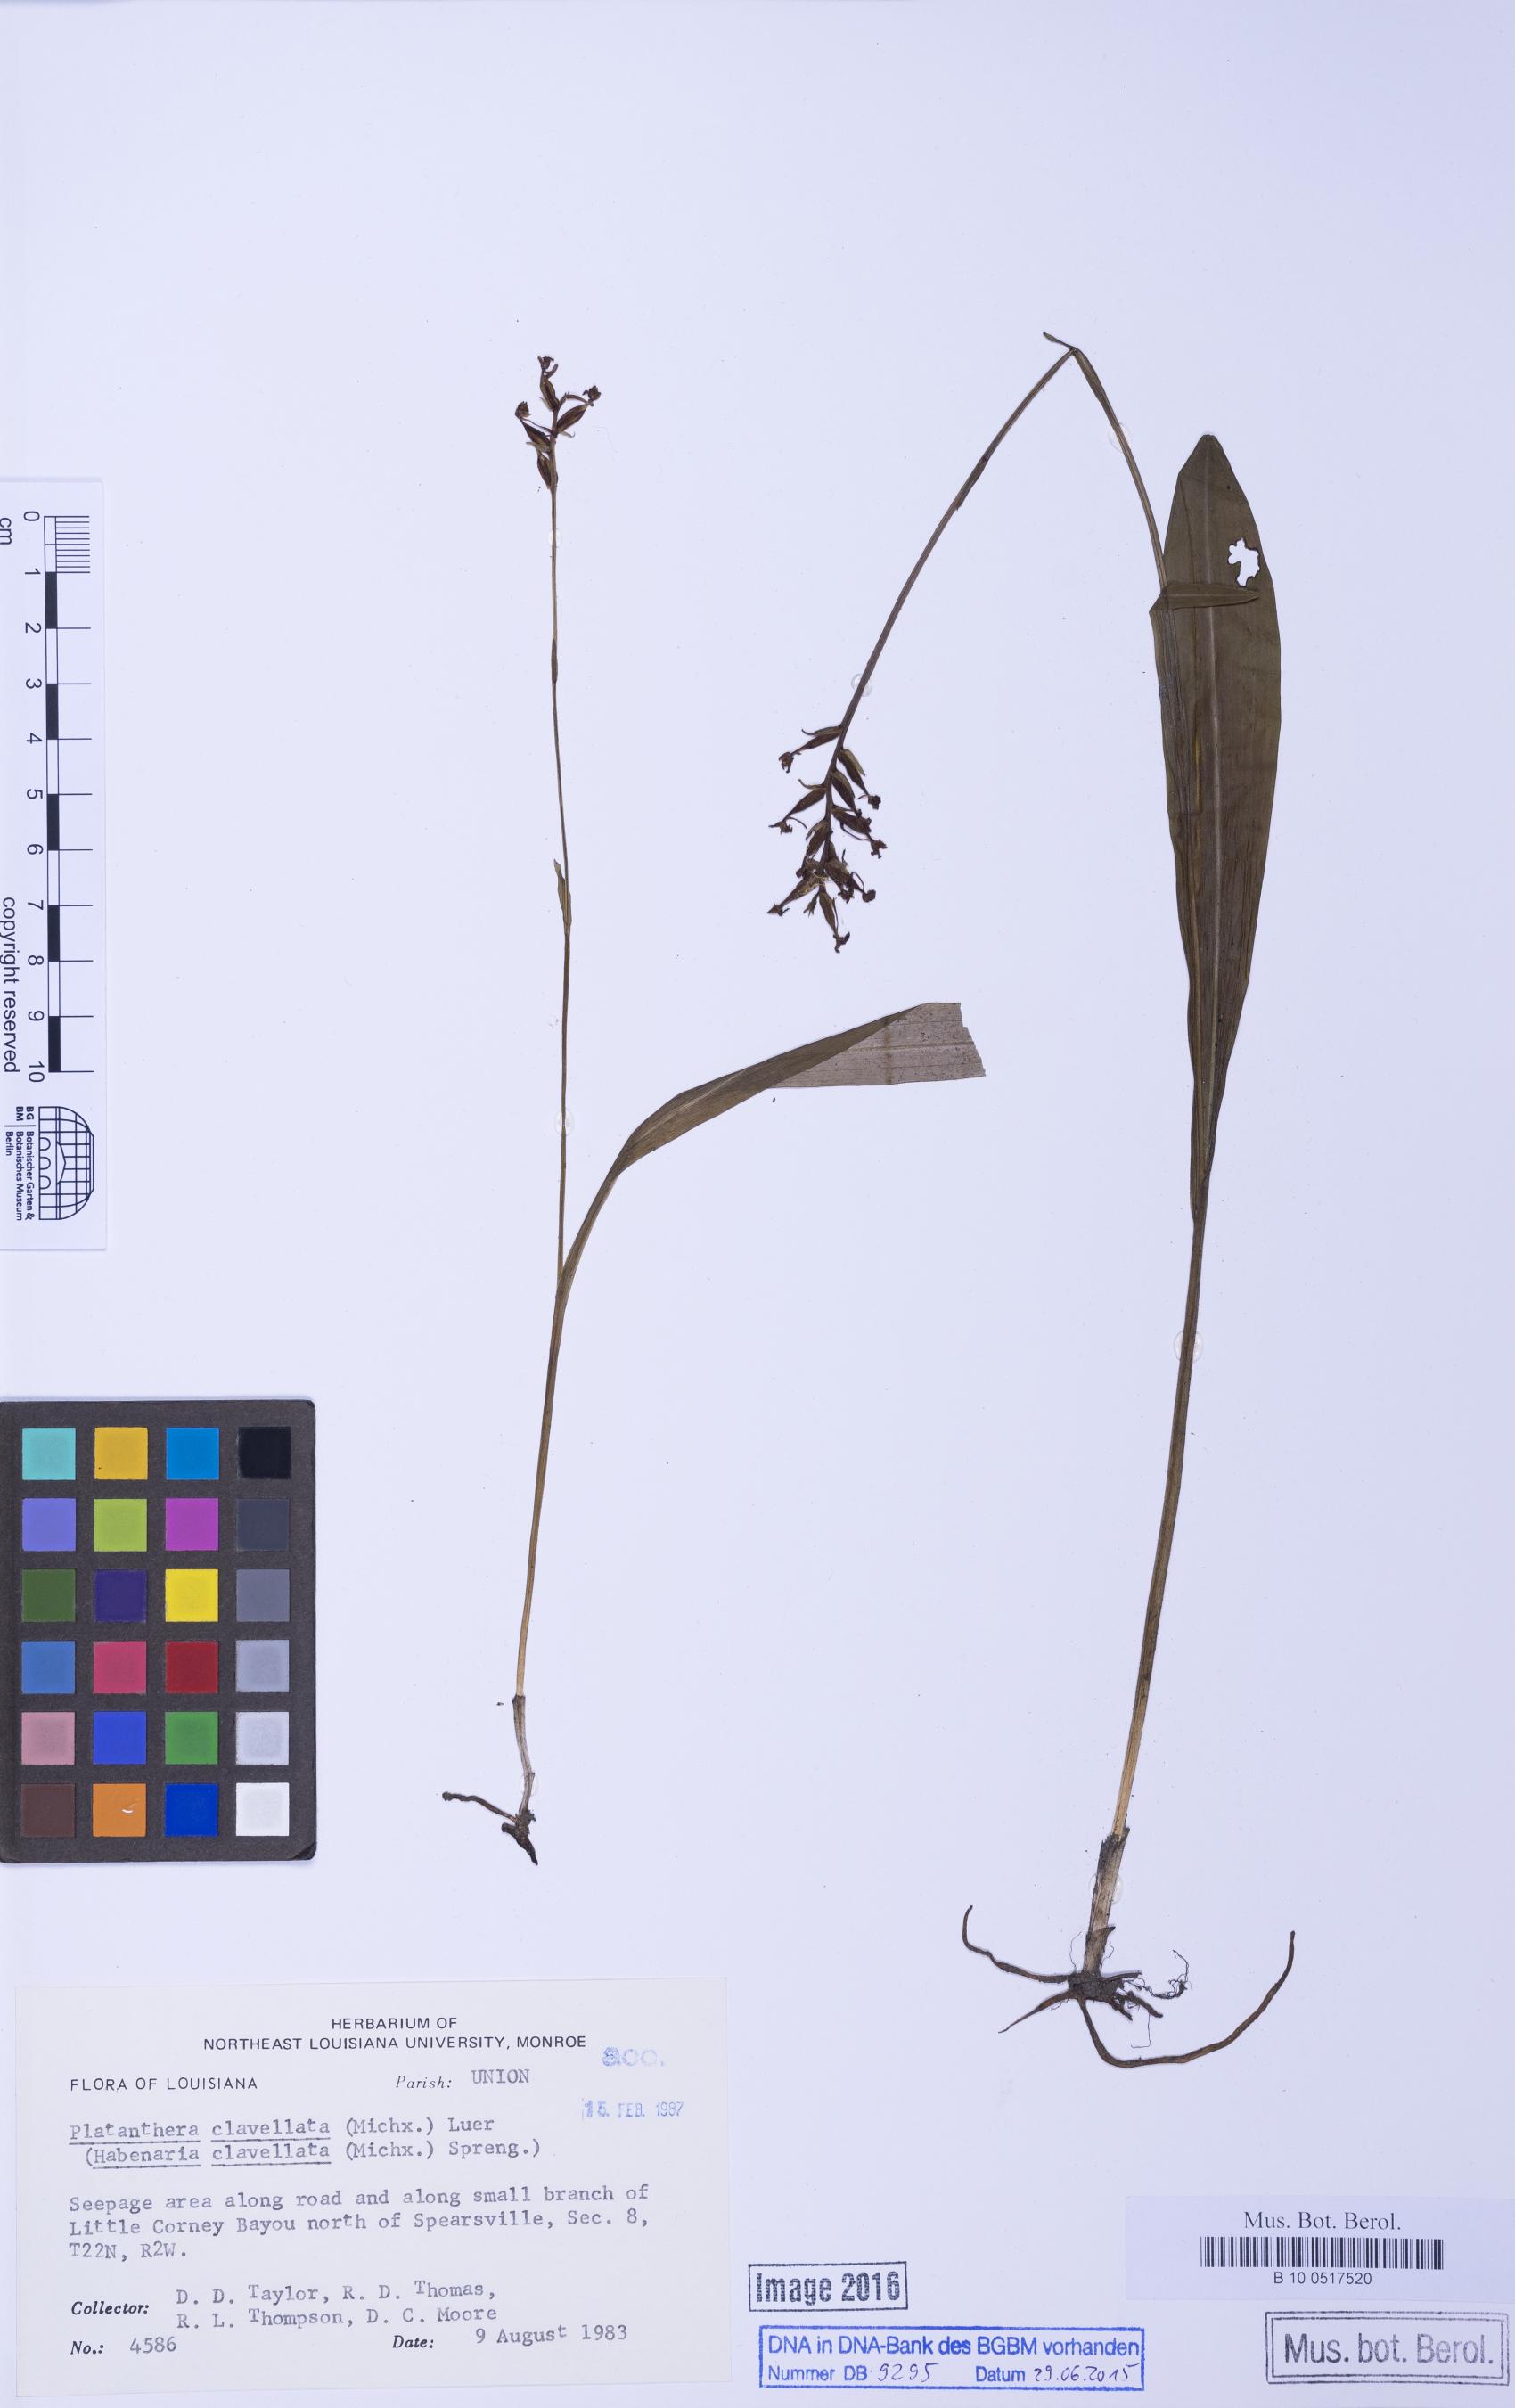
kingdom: Plantae
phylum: Tracheophyta
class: Liliopsida
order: Asparagales
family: Orchidaceae
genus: Platanthera
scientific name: Platanthera clavellata
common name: Club-spur orchid
